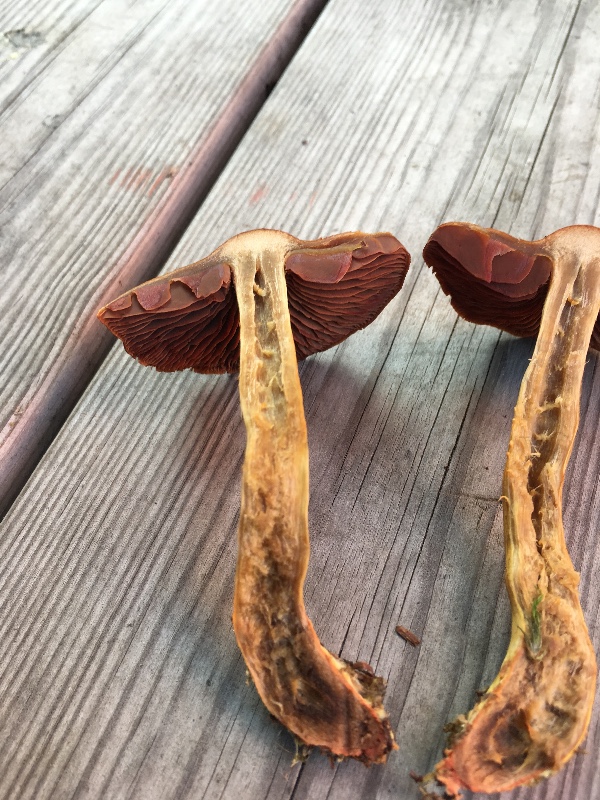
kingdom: Fungi
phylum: Basidiomycota
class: Agaricomycetes
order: Agaricales
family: Cortinariaceae
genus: Cortinarius
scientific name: Cortinarius
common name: cinnoberbladet slørhat
